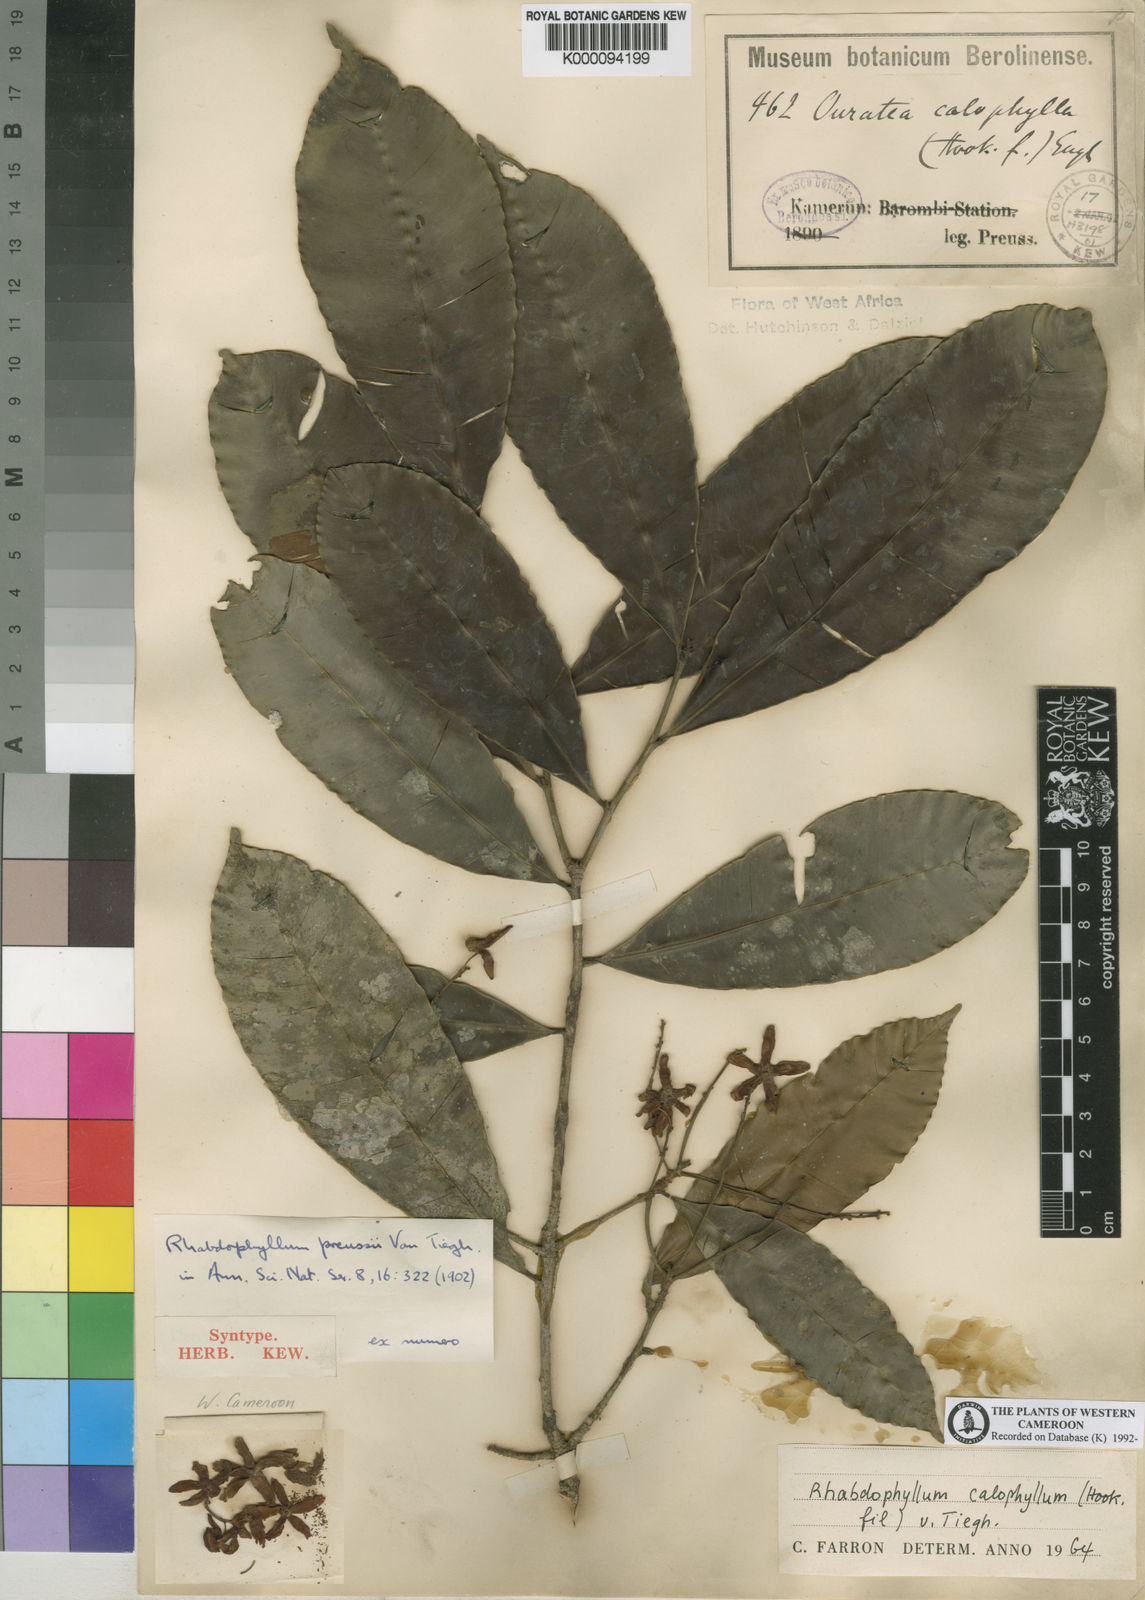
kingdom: Plantae
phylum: Tracheophyta
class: Magnoliopsida
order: Malpighiales
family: Ochnaceae
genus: Rhabdophyllum
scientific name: Rhabdophyllum calophyllum
